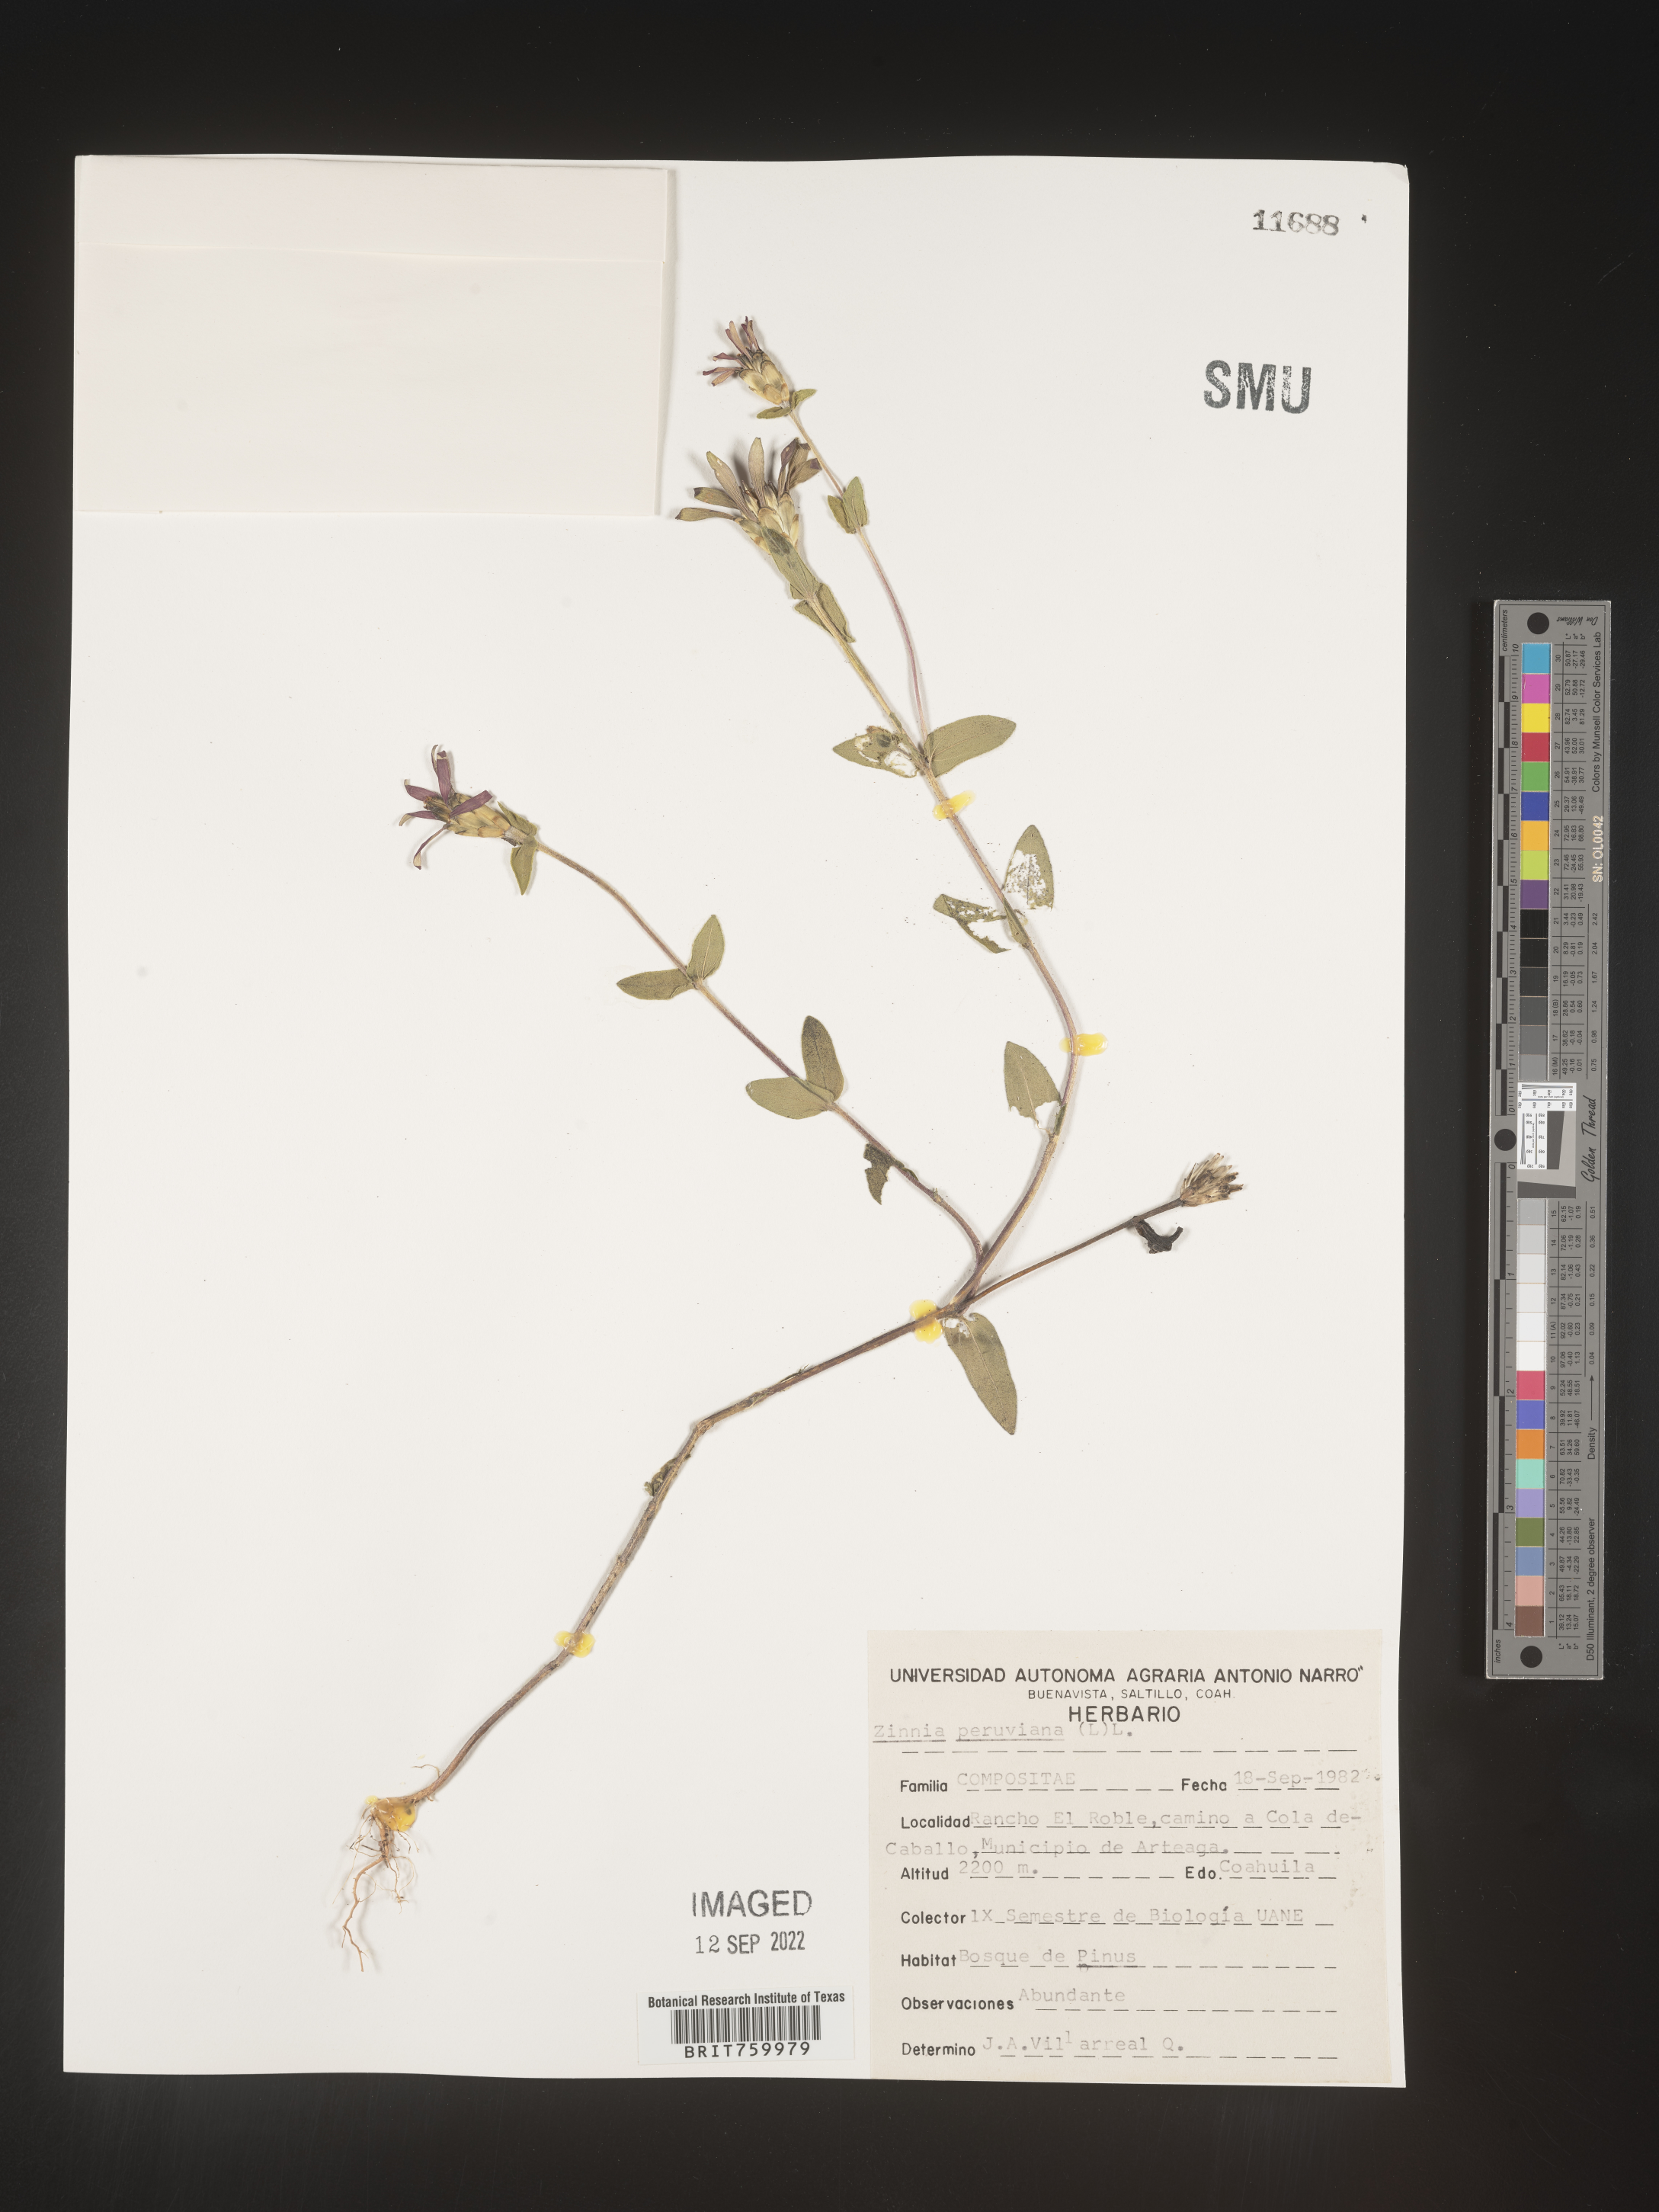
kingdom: Plantae
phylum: Tracheophyta
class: Magnoliopsida
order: Asterales
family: Asteraceae
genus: Zinnia
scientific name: Zinnia
